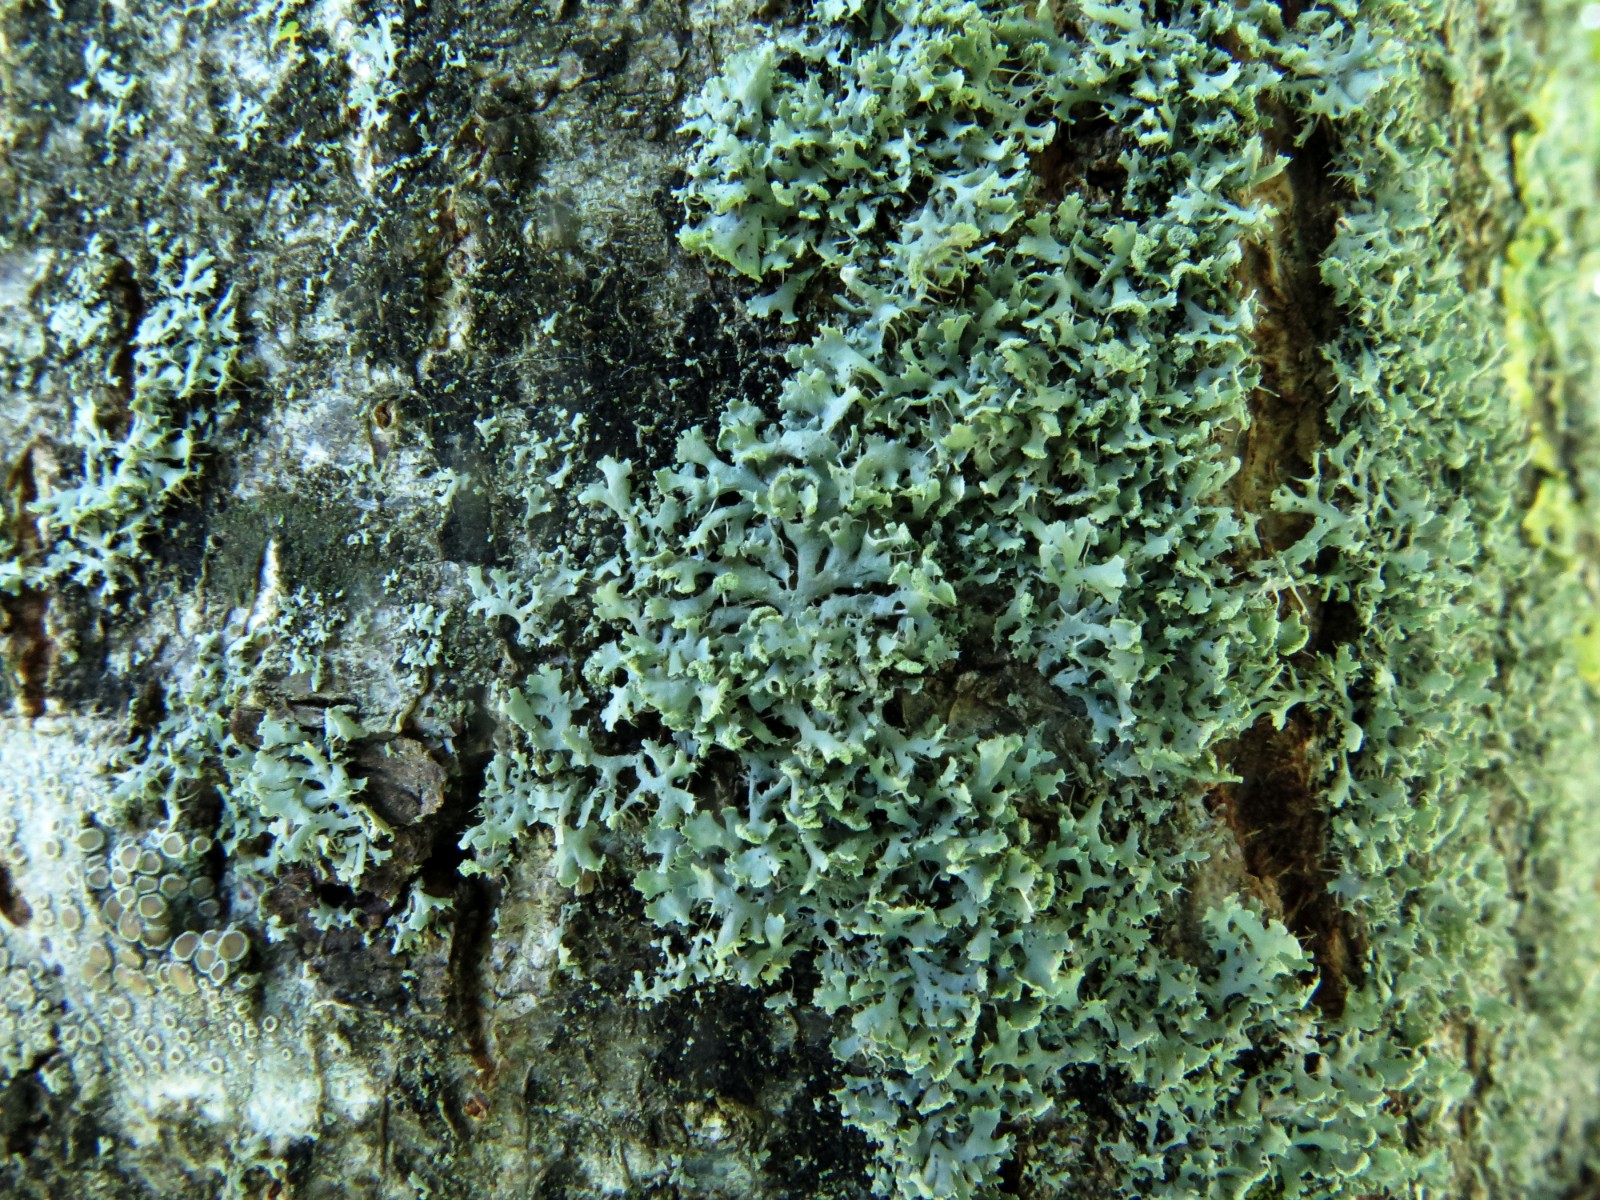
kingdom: Fungi
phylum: Ascomycota
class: Lecanoromycetes
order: Caliciales
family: Physciaceae
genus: Physcia
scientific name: Physcia adscendens
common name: hætte-rosetlav
